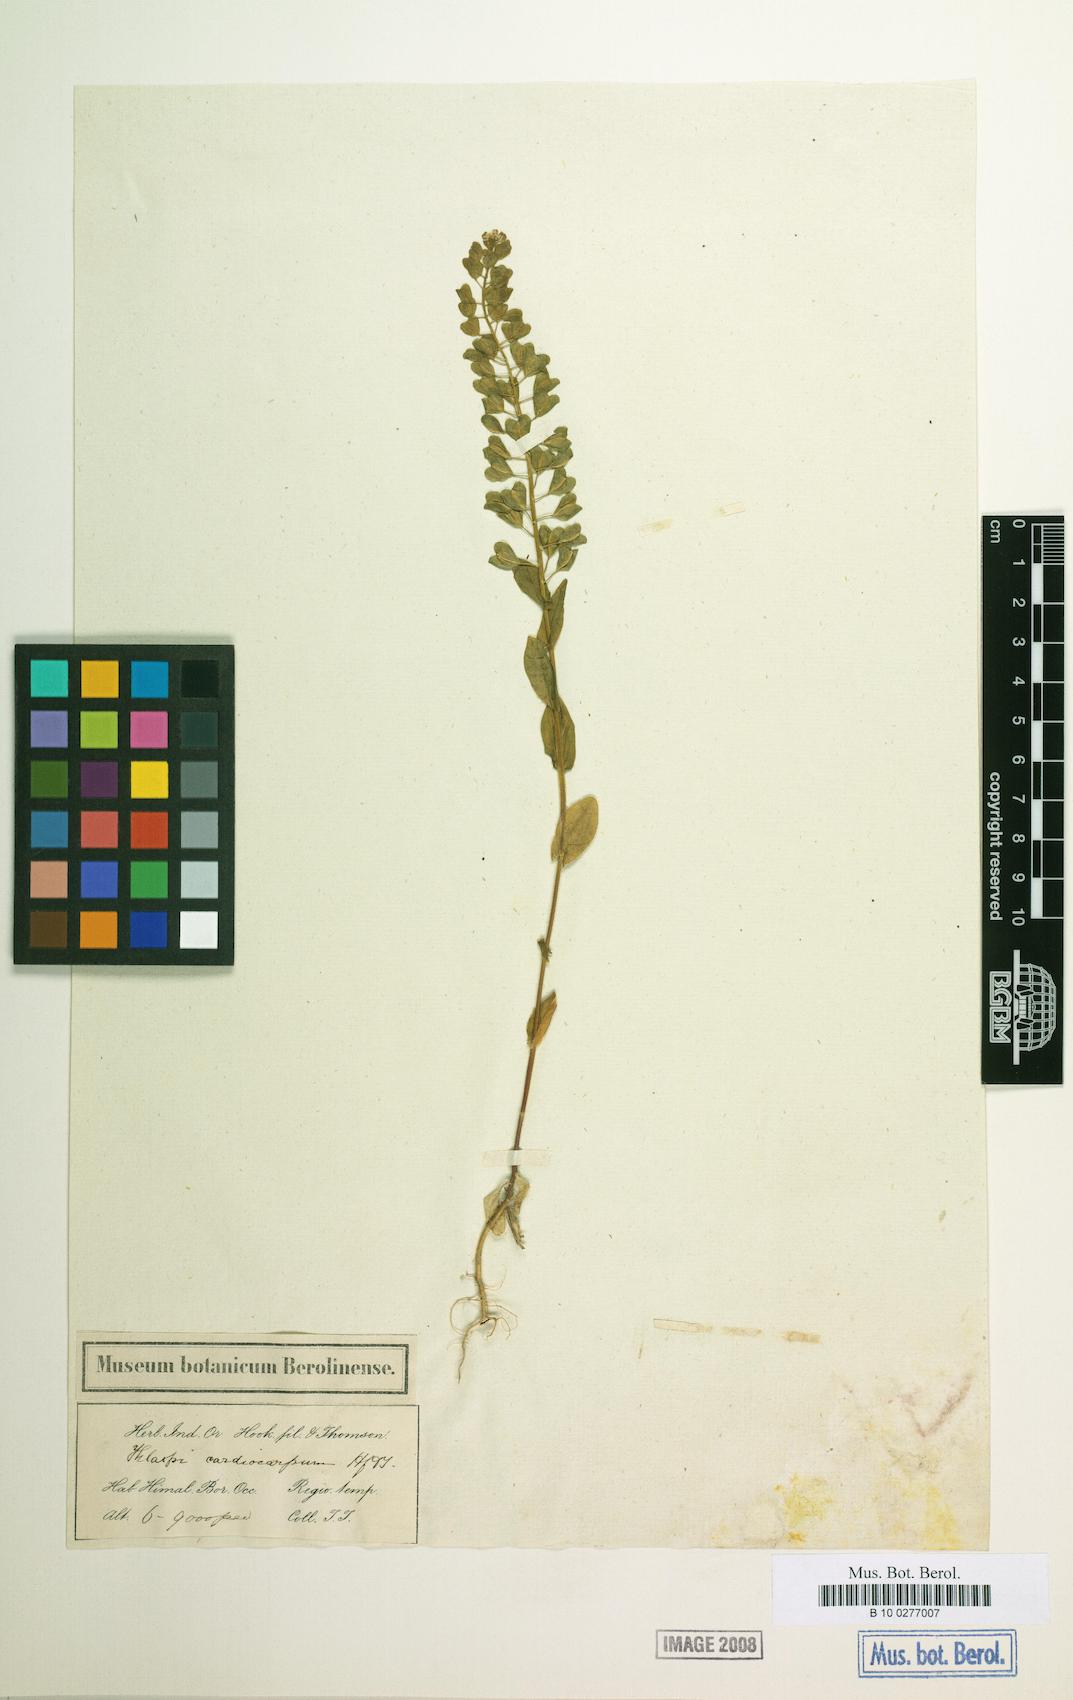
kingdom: Plantae
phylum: Tracheophyta
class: Magnoliopsida
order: Brassicales
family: Brassicaceae
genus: Noccaea
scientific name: Noccaea platycarpa
